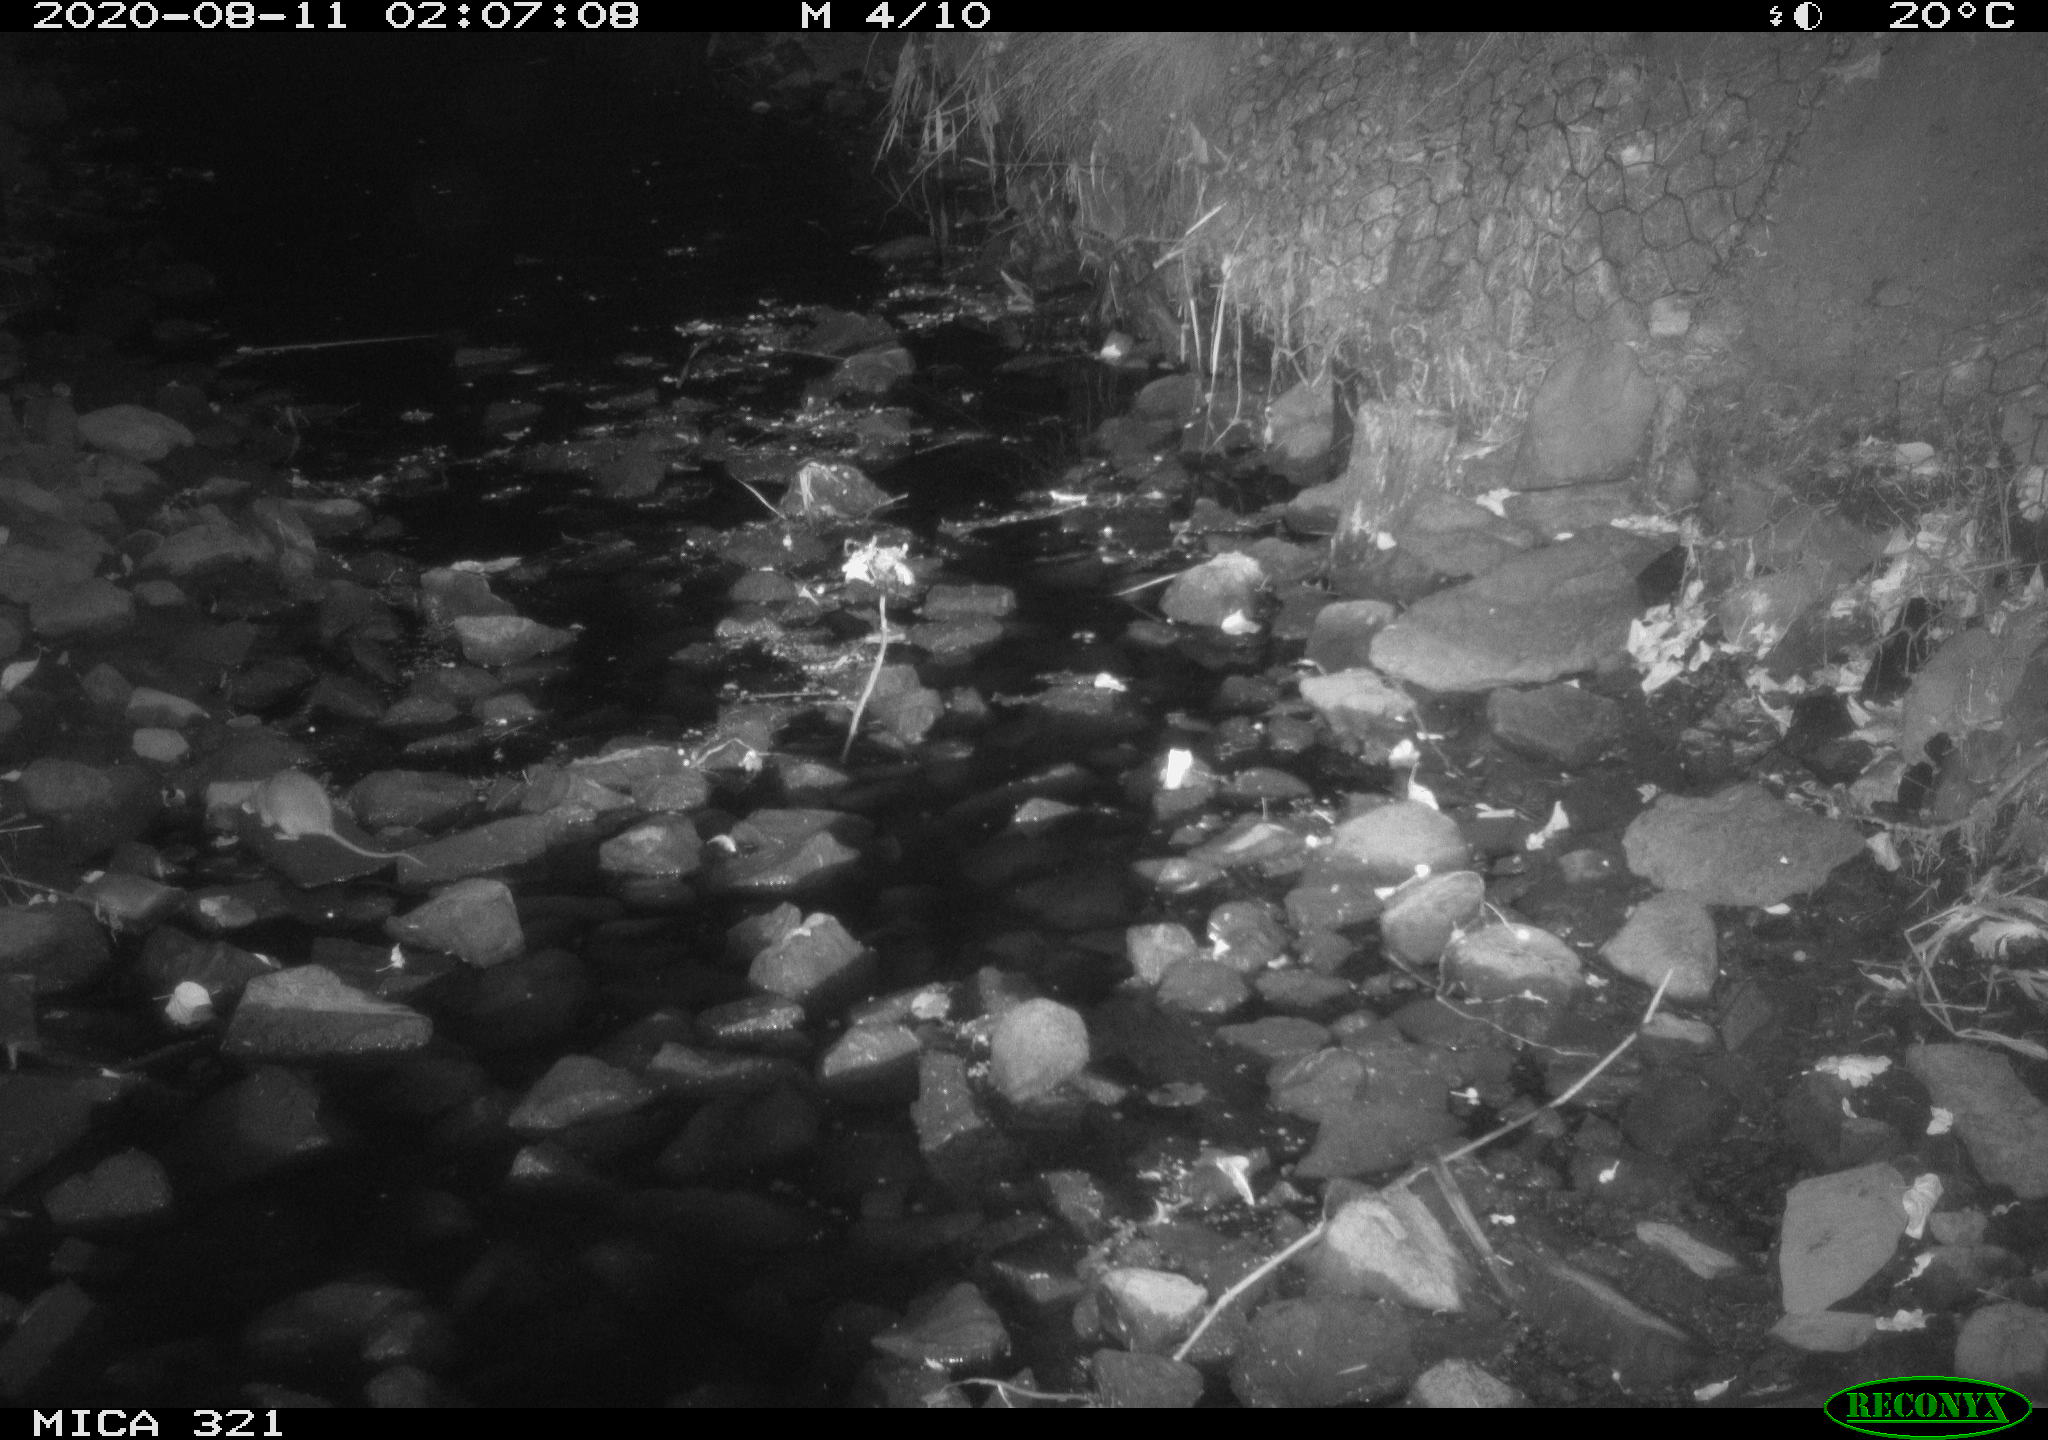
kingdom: Animalia
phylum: Chordata
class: Mammalia
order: Rodentia
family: Muridae
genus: Rattus
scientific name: Rattus norvegicus
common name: Brown rat
